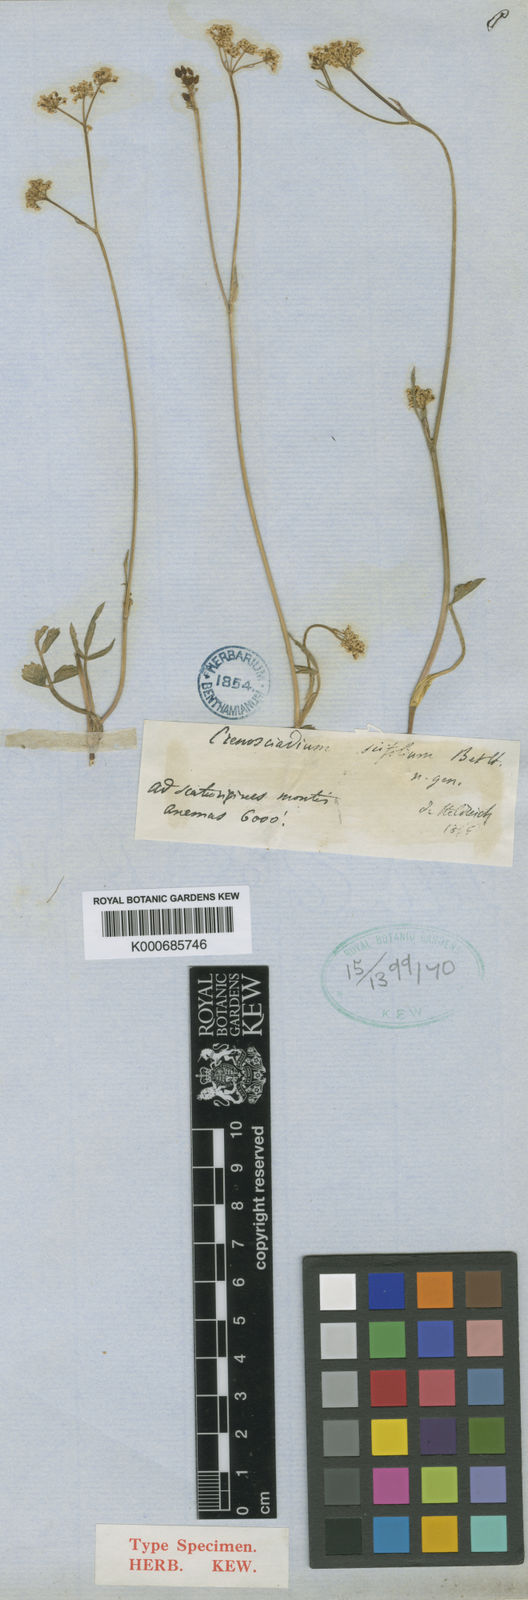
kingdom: Plantae
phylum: Tracheophyta
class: Magnoliopsida
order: Apiales
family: Apiaceae
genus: Opopanax
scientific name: Opopanax siifolius
